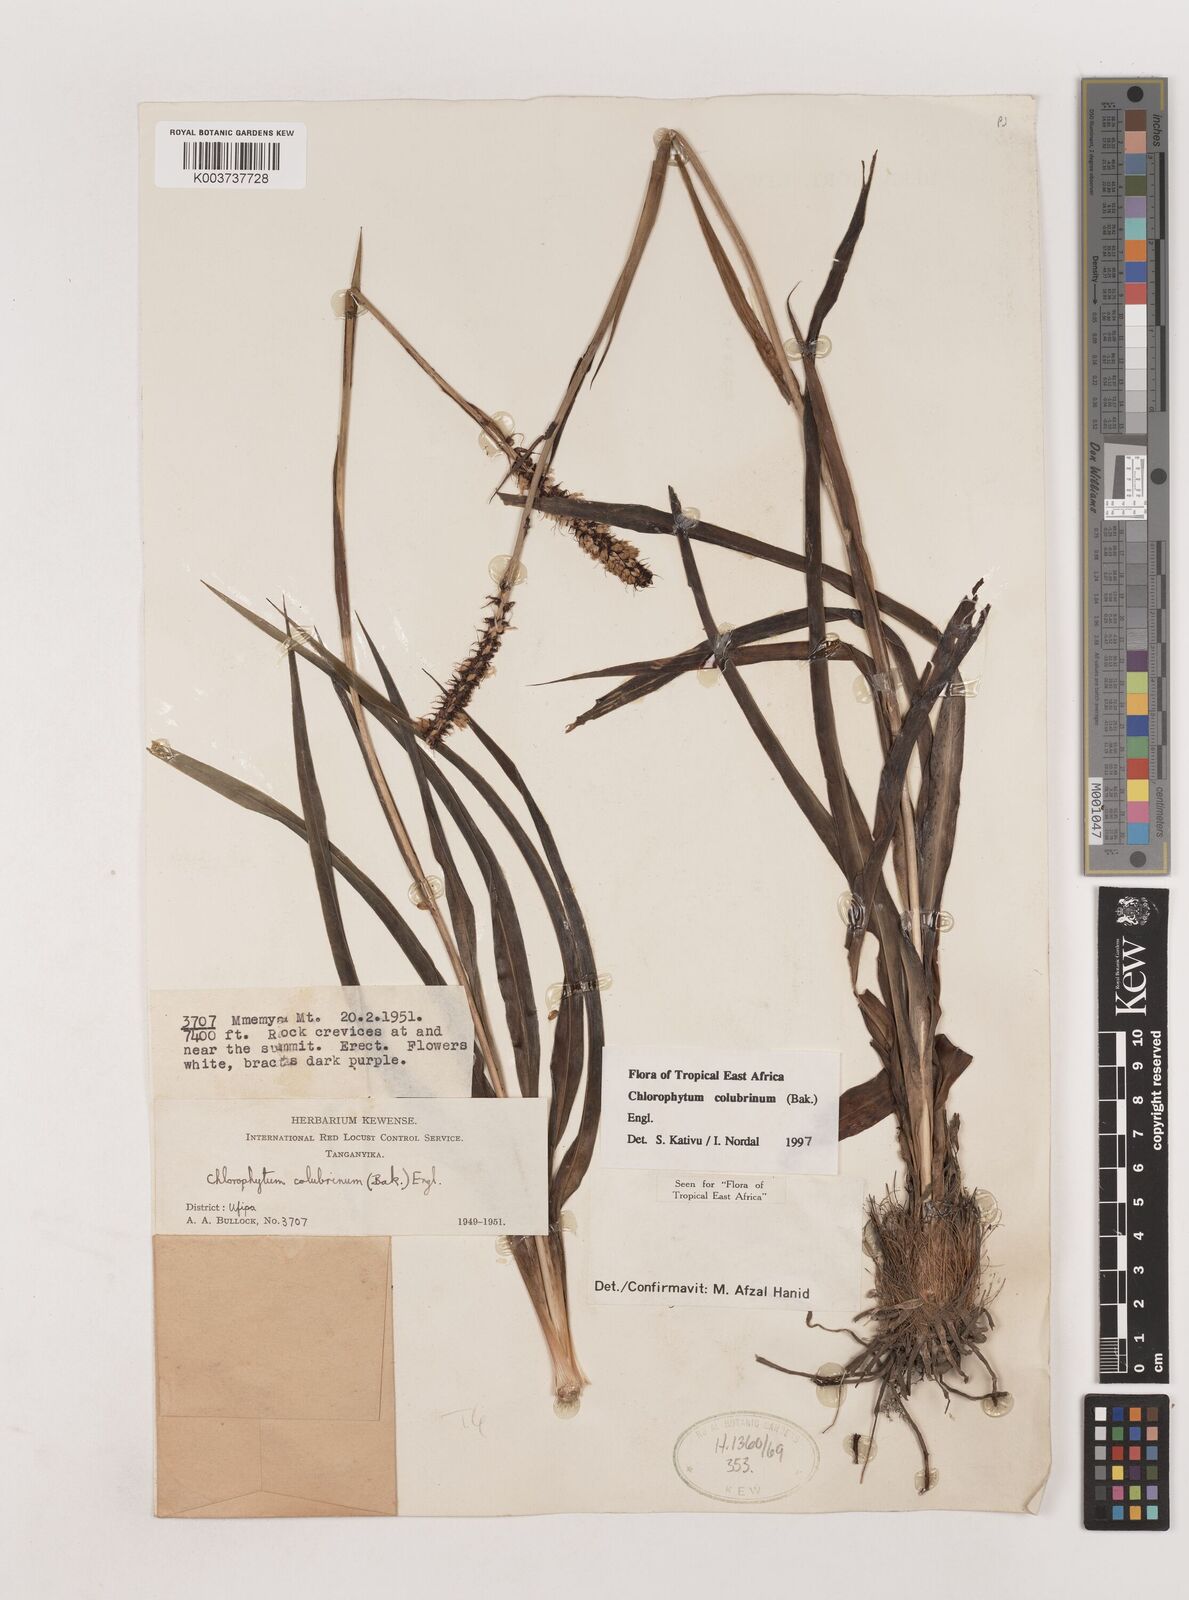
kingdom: Plantae
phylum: Tracheophyta
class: Liliopsida
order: Asparagales
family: Asparagaceae
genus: Chlorophytum
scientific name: Chlorophytum colubrinum
